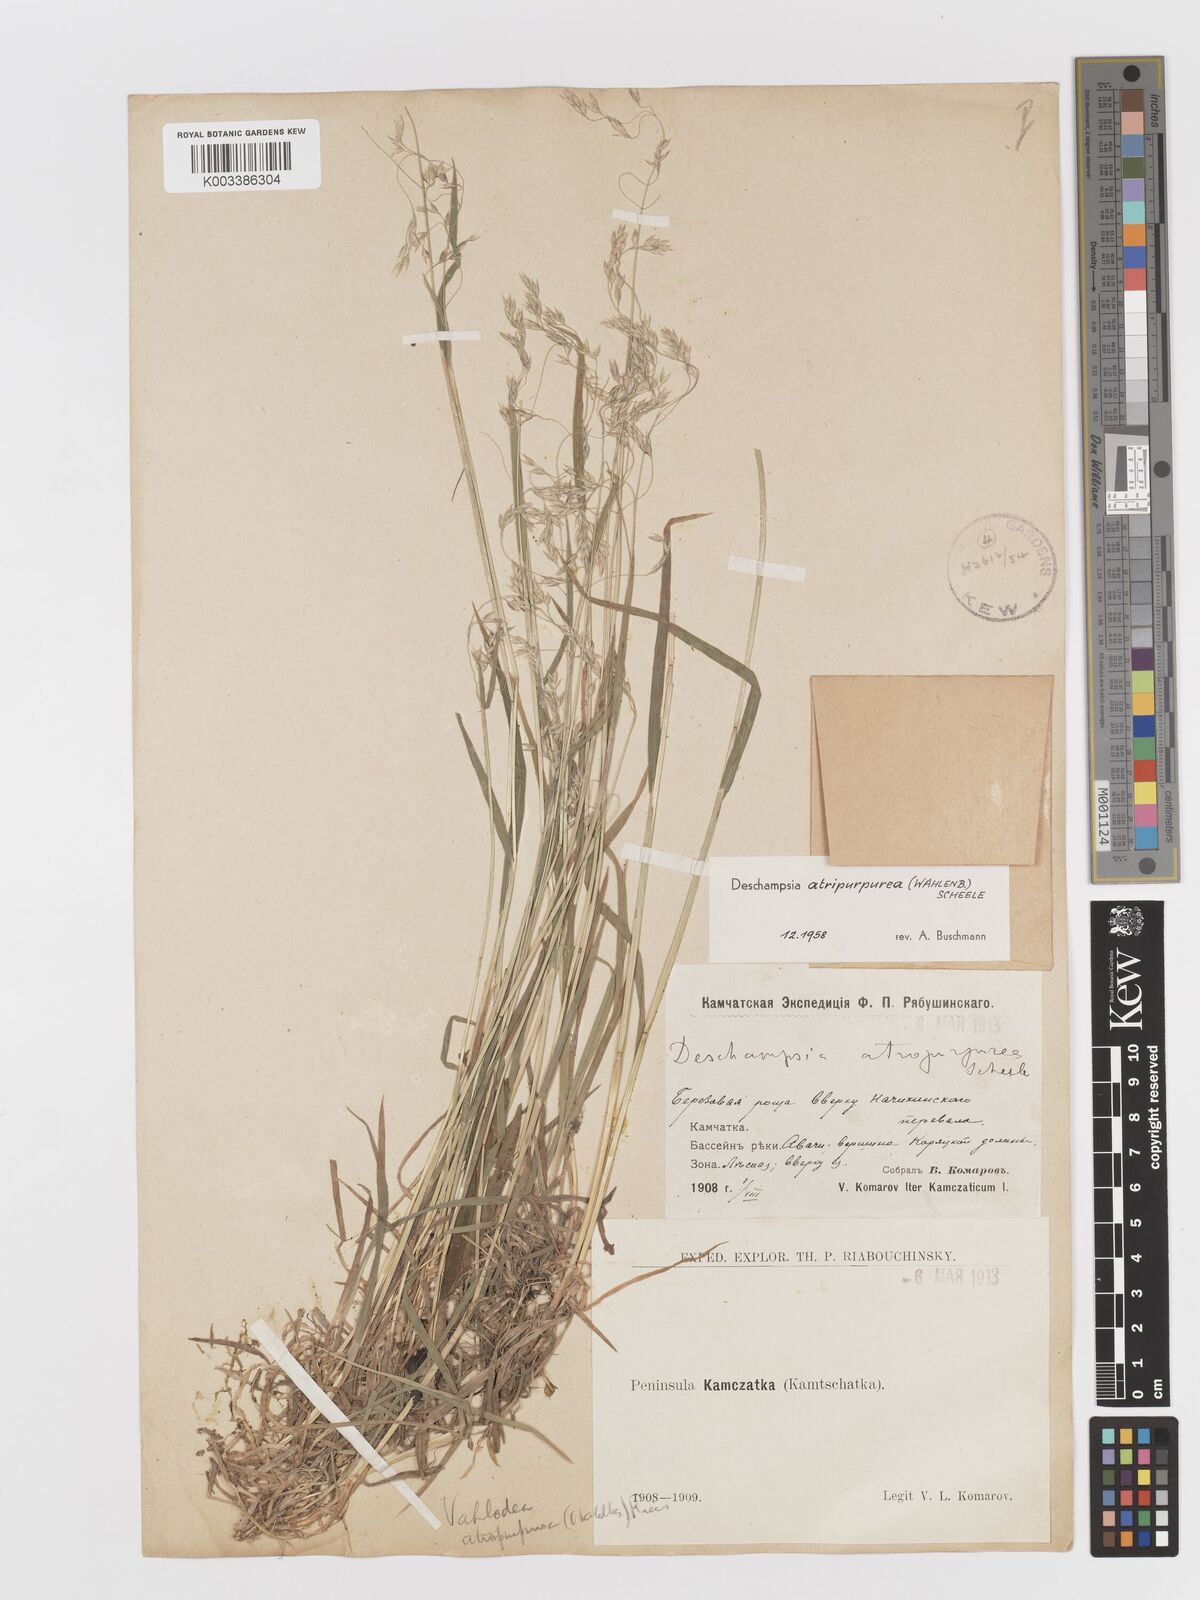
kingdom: Plantae
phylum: Tracheophyta
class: Liliopsida
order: Poales
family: Poaceae
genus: Vahlodea
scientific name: Vahlodea atropurpurea
